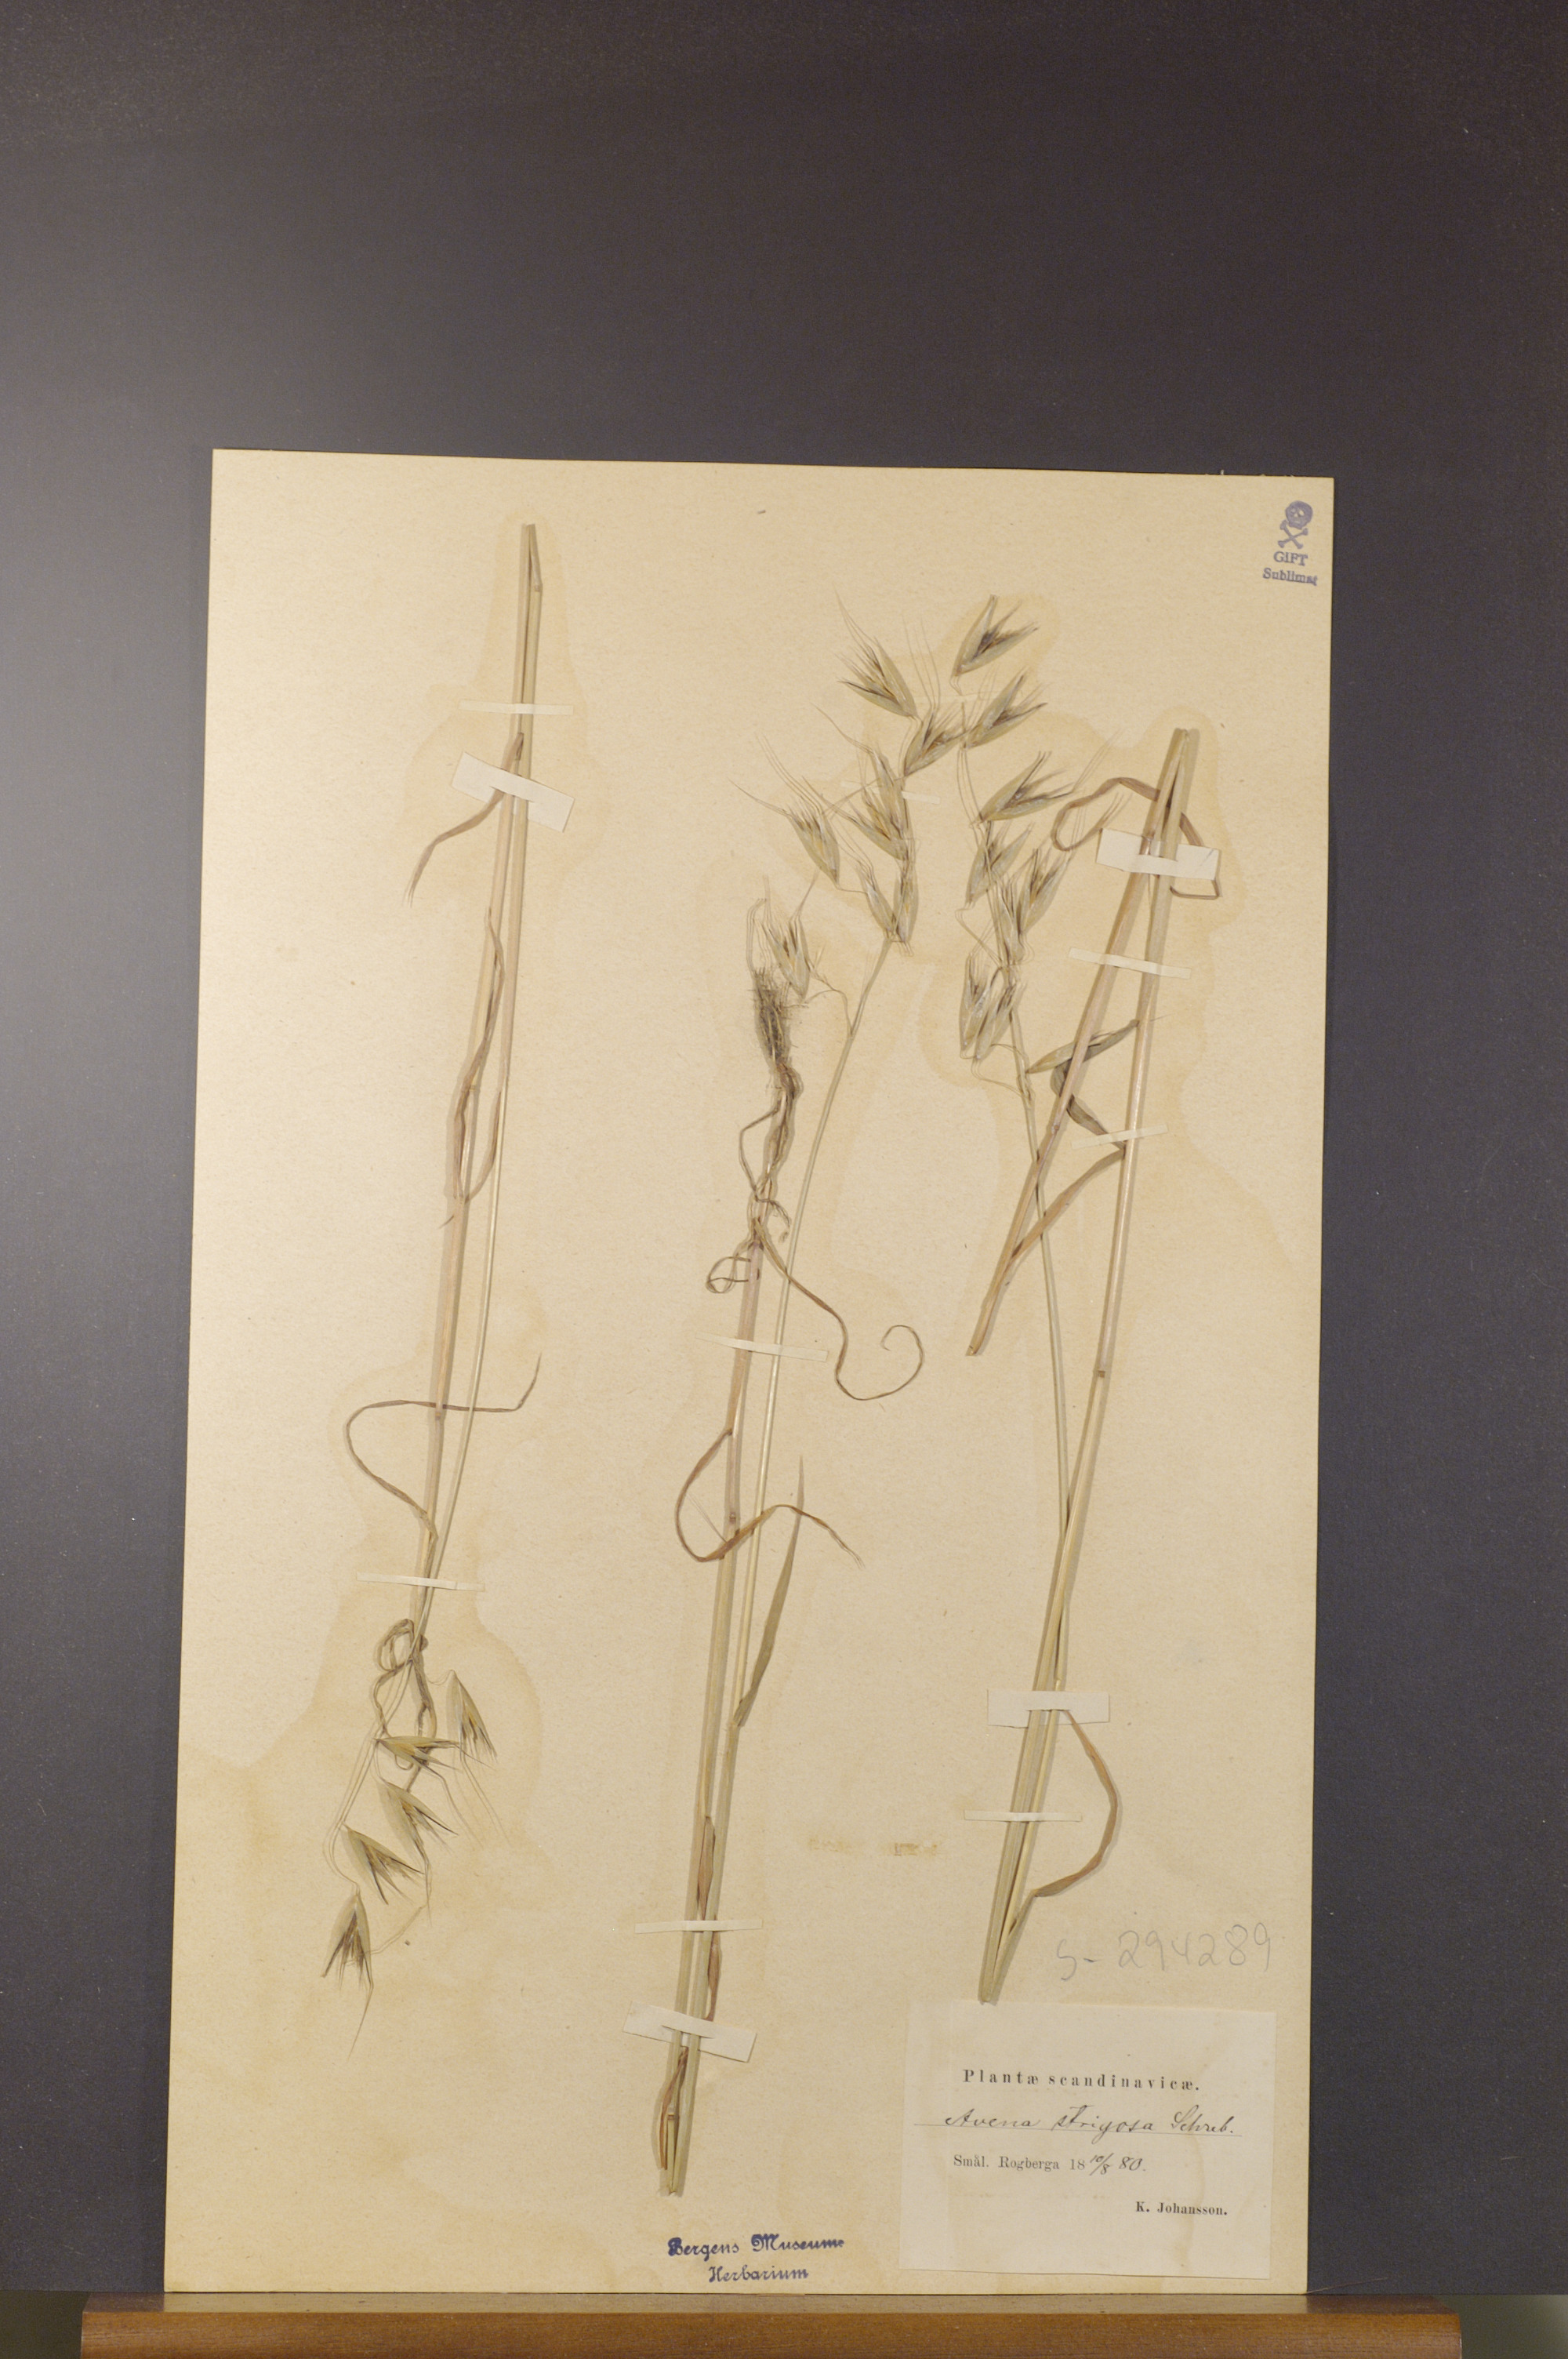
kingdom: Plantae
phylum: Tracheophyta
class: Liliopsida
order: Poales
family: Poaceae
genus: Avena
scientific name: Avena strigosa
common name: Bristle oat
